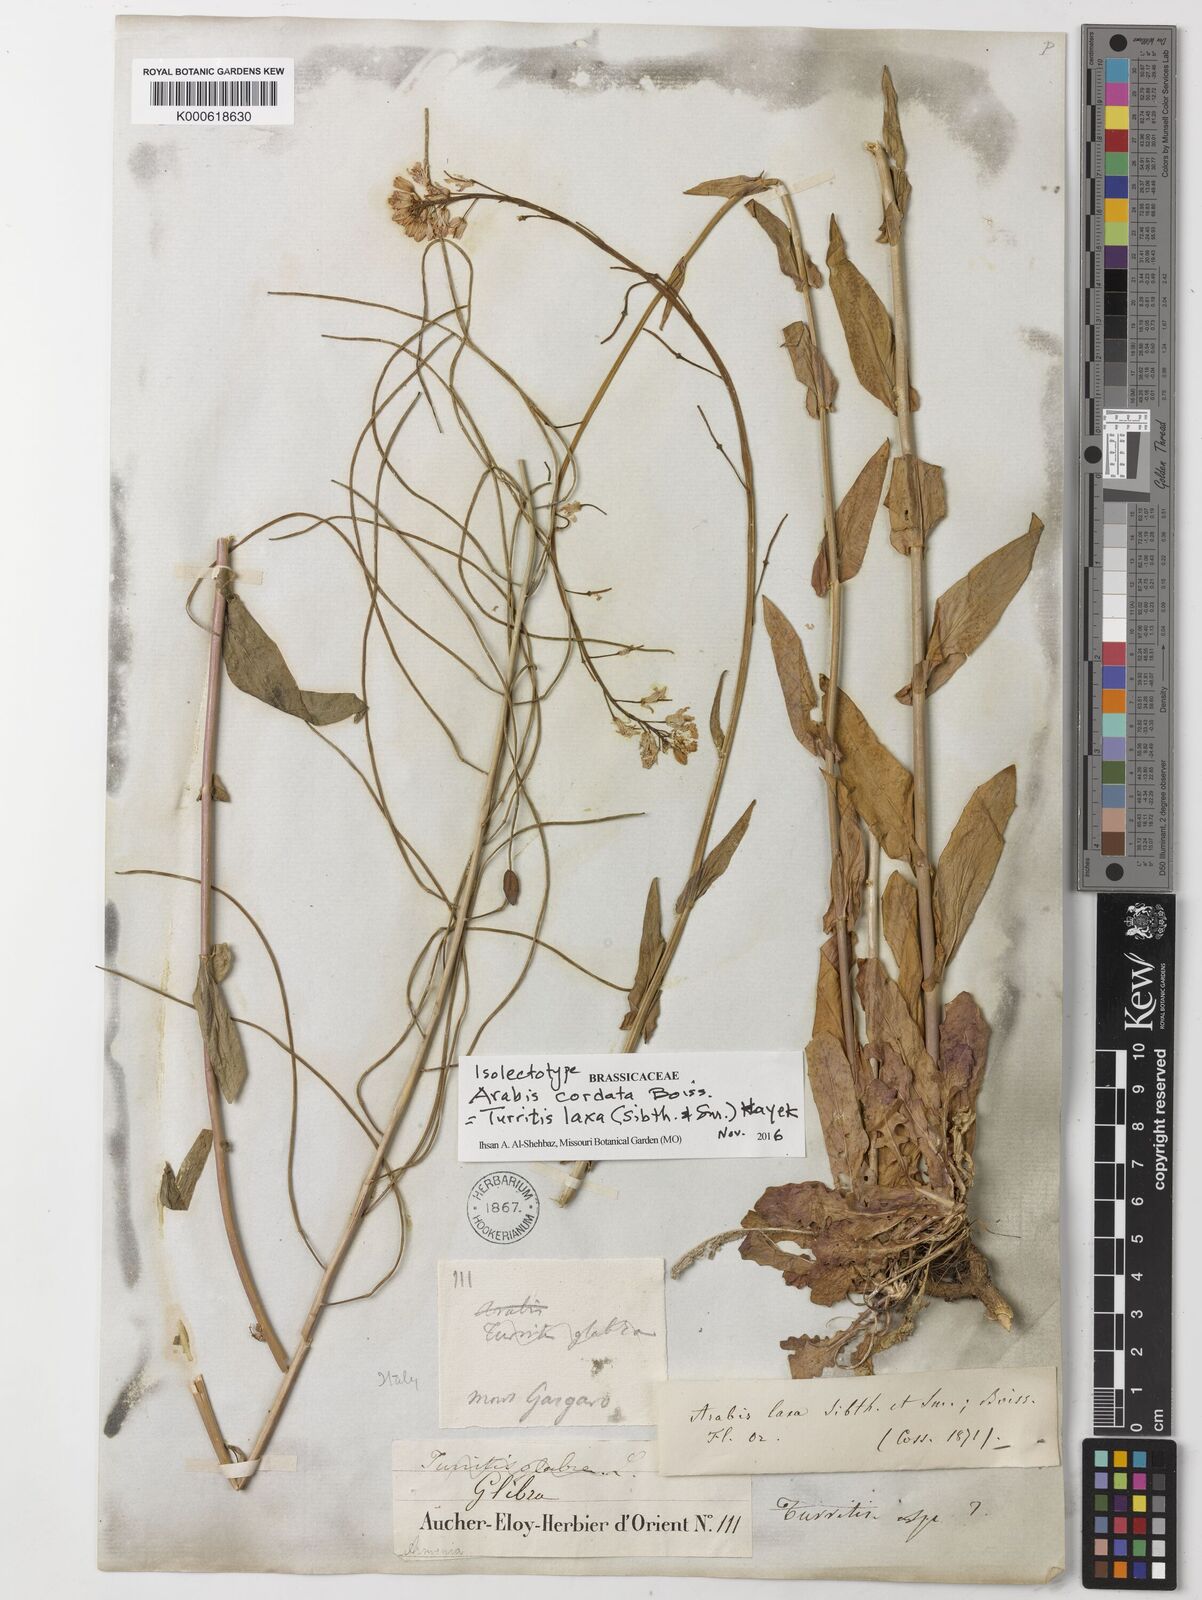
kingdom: Plantae
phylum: Tracheophyta
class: Magnoliopsida
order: Brassicales
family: Brassicaceae
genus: Turritis
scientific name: Turritis laxa
